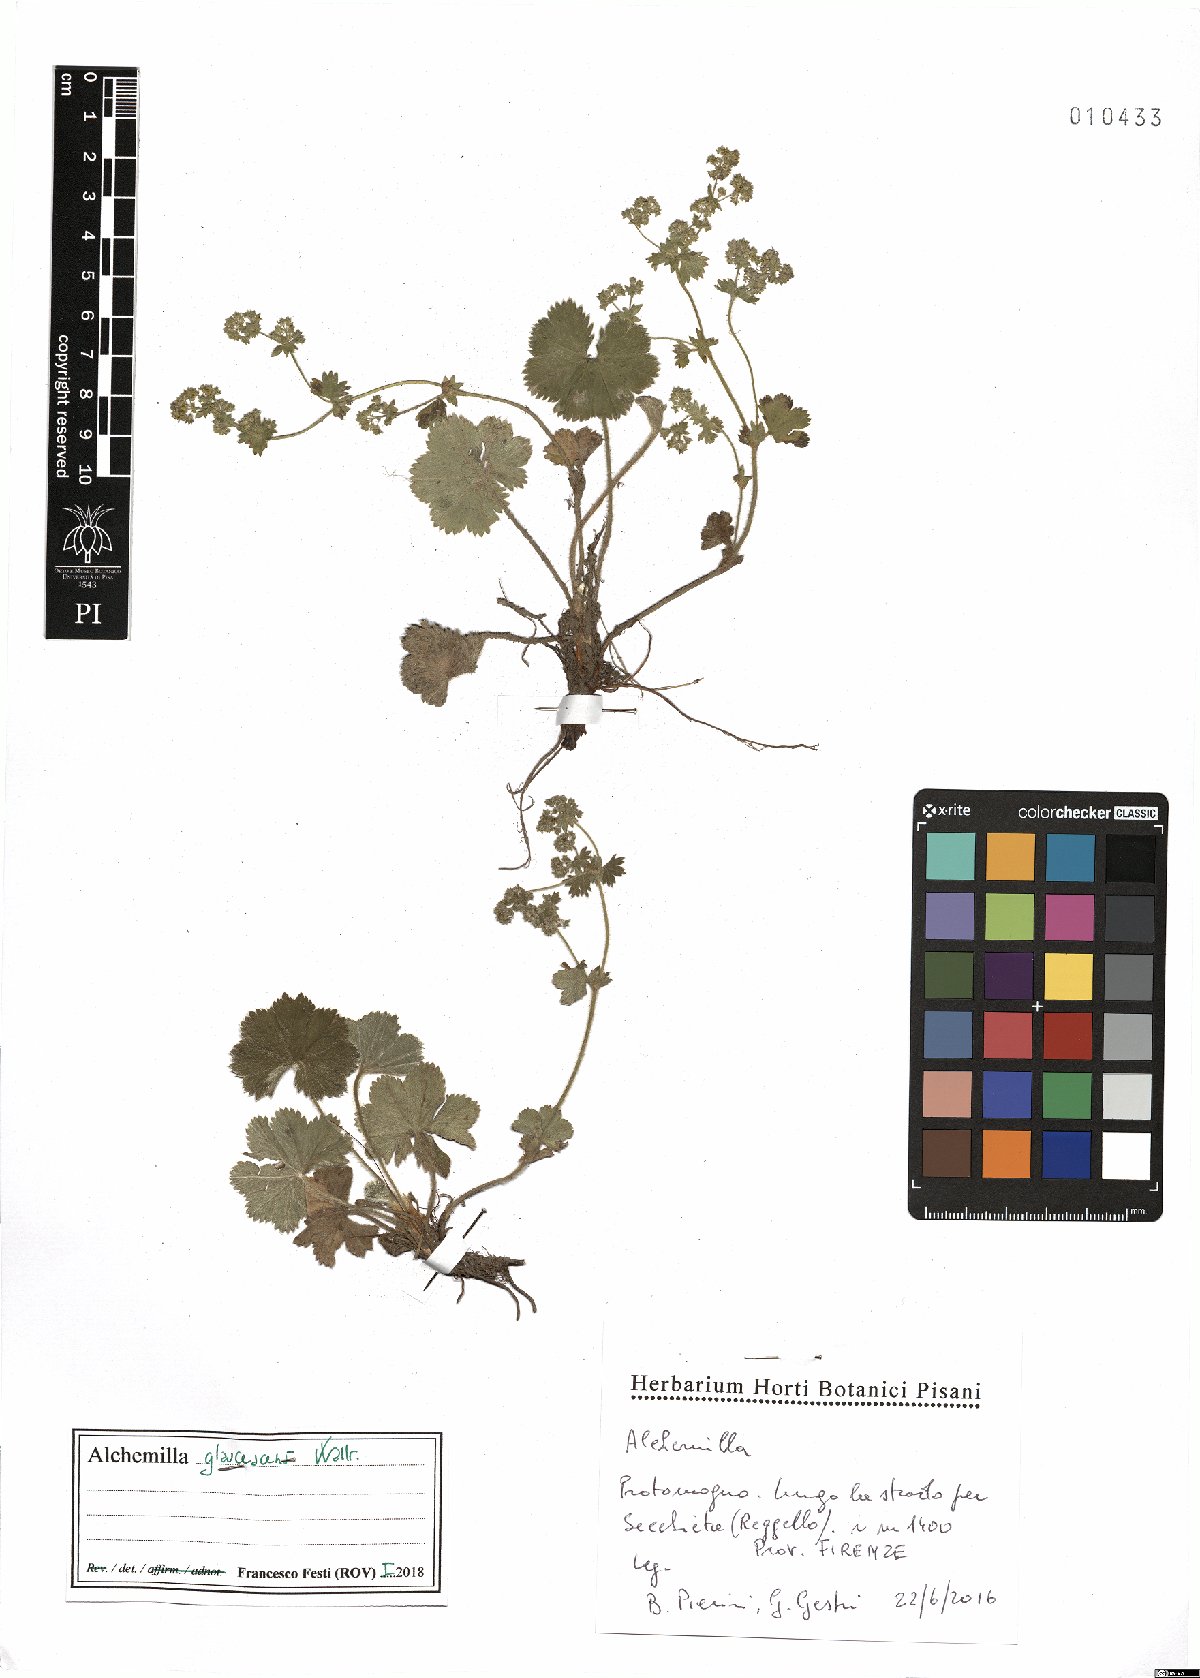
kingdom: Plantae
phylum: Tracheophyta
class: Magnoliopsida
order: Rosales
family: Rosaceae
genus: Alchemilla
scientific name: Alchemilla glaucescens
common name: Silky lady's mantle
